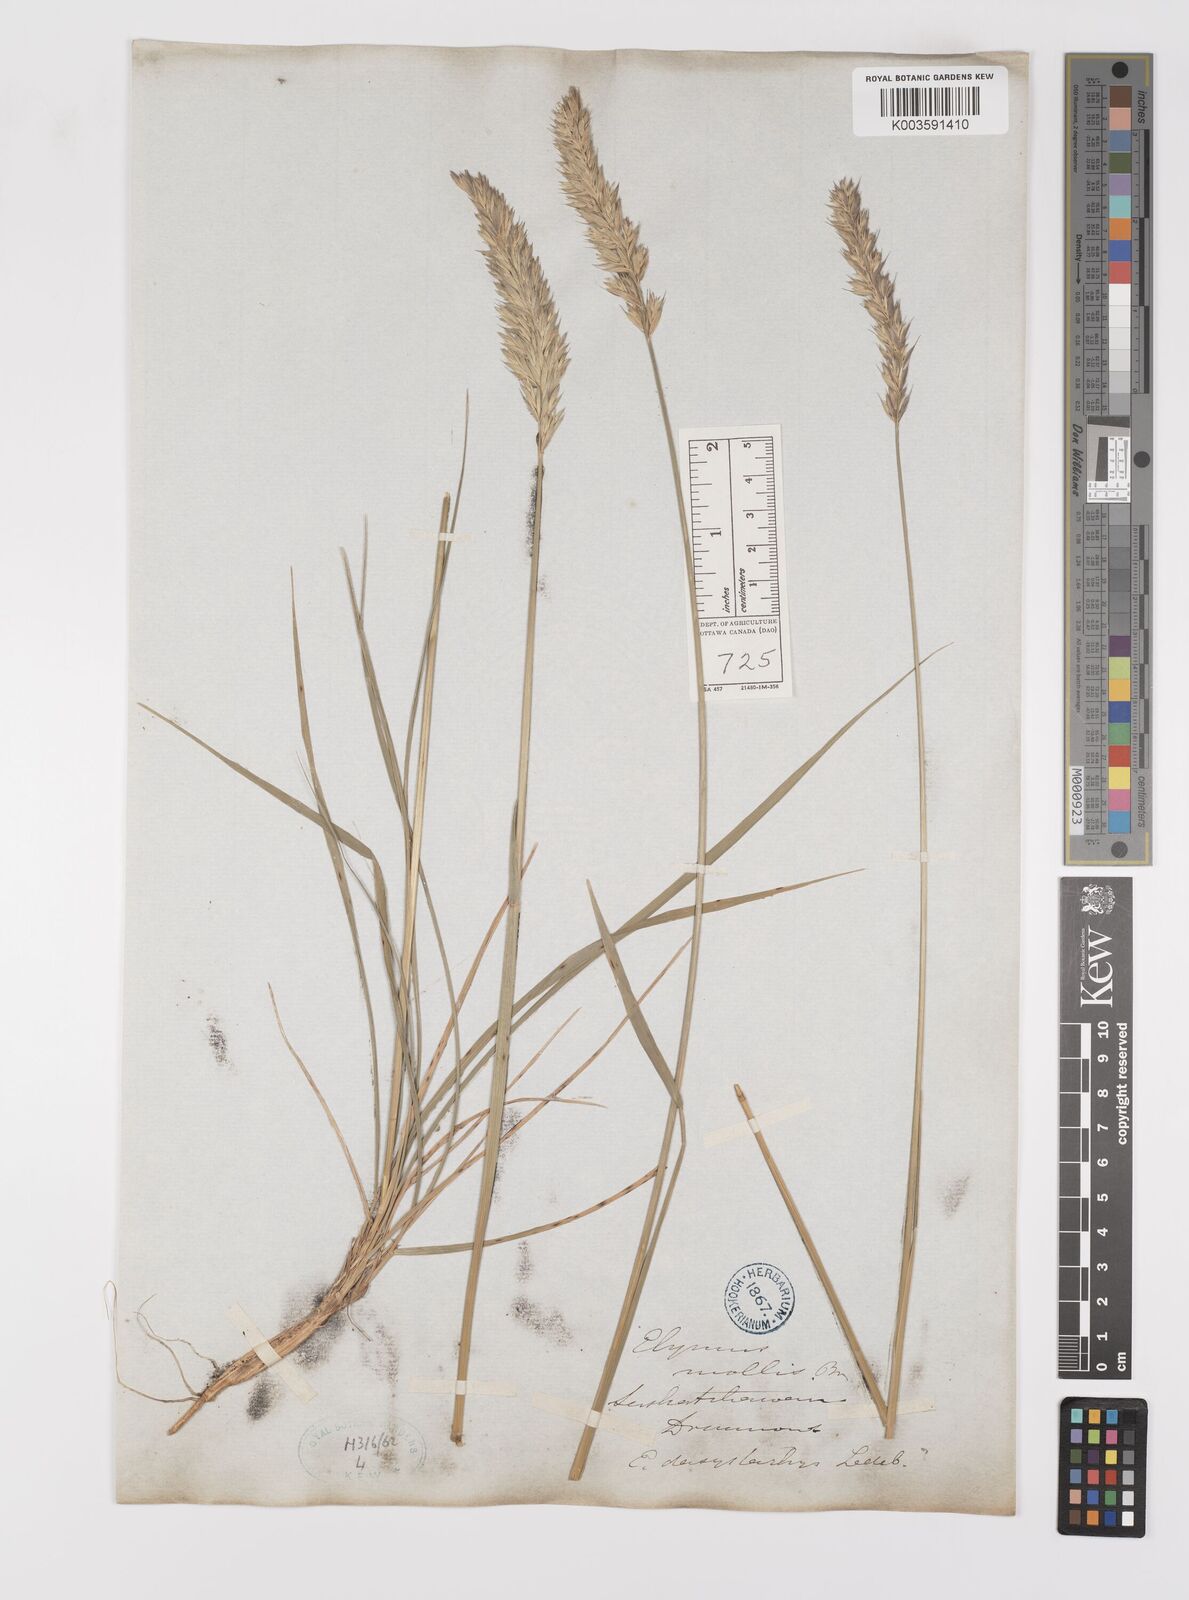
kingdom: Plantae
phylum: Tracheophyta
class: Liliopsida
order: Poales
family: Poaceae
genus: Leymus
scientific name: Leymus mollis
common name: American dune grass
